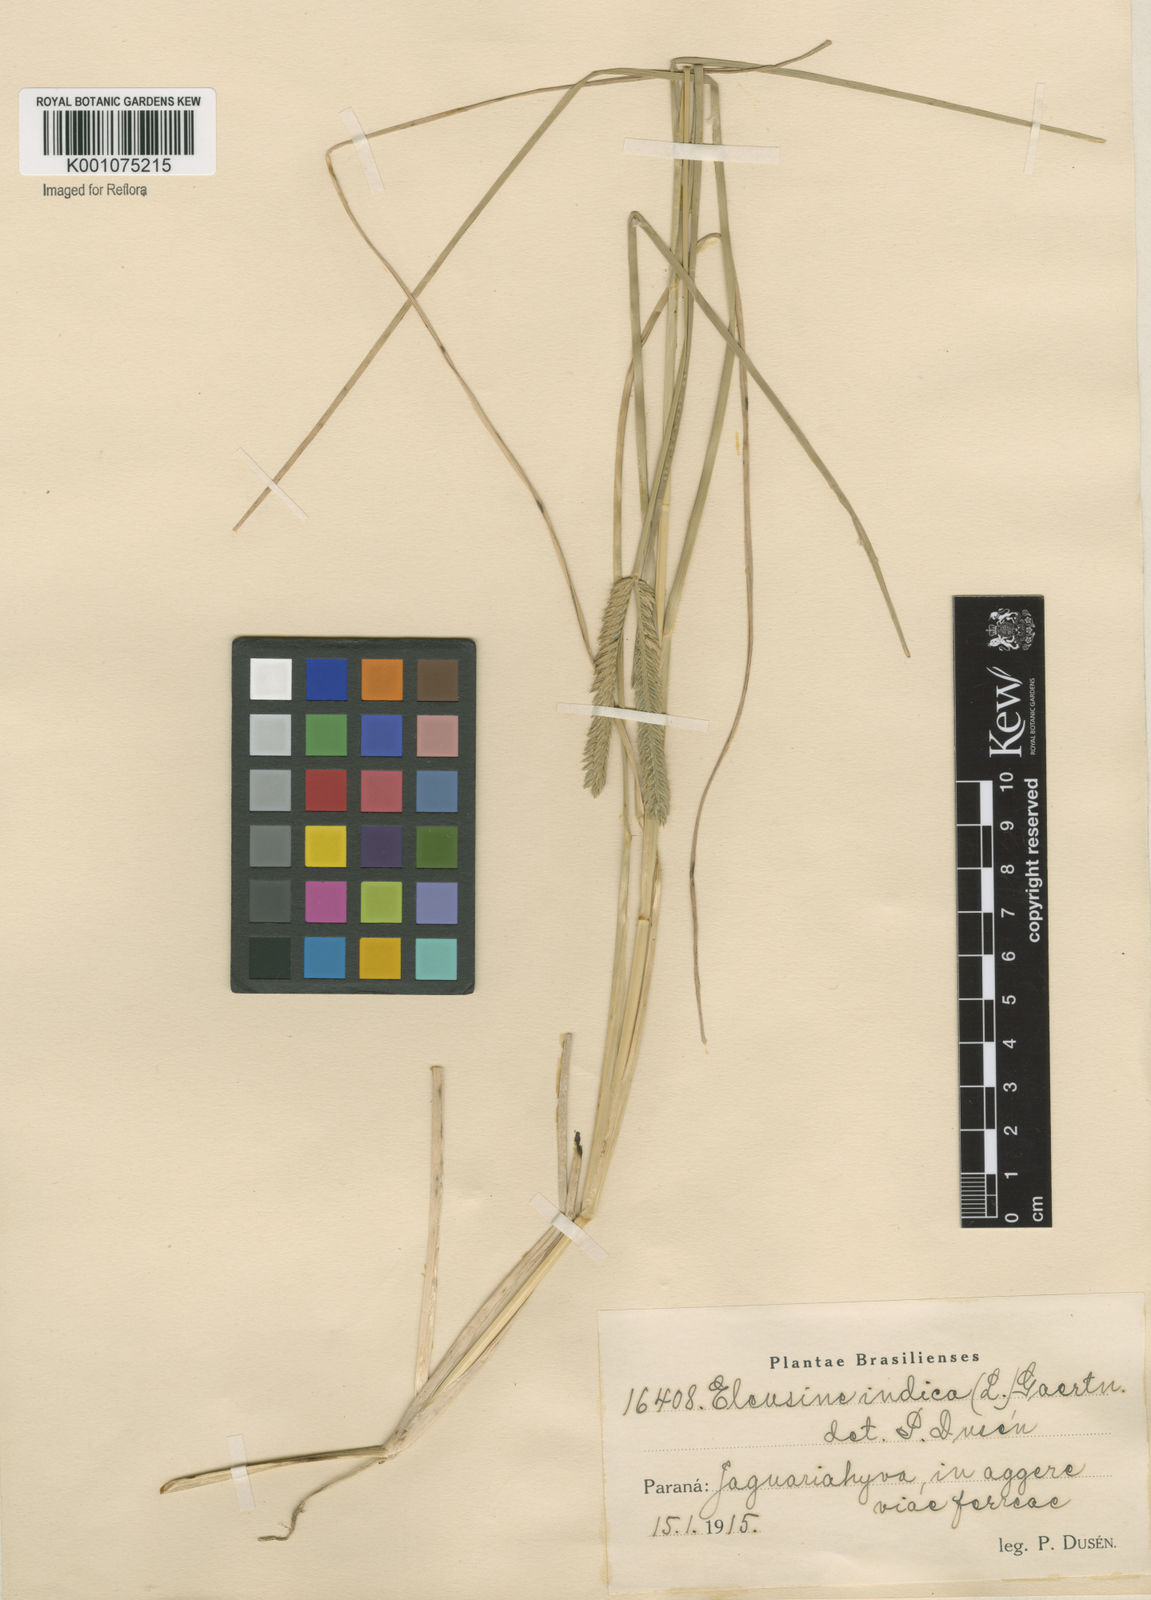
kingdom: Plantae
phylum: Tracheophyta
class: Liliopsida
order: Poales
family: Poaceae
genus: Eleusine
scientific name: Eleusine indica
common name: Yard-grass
